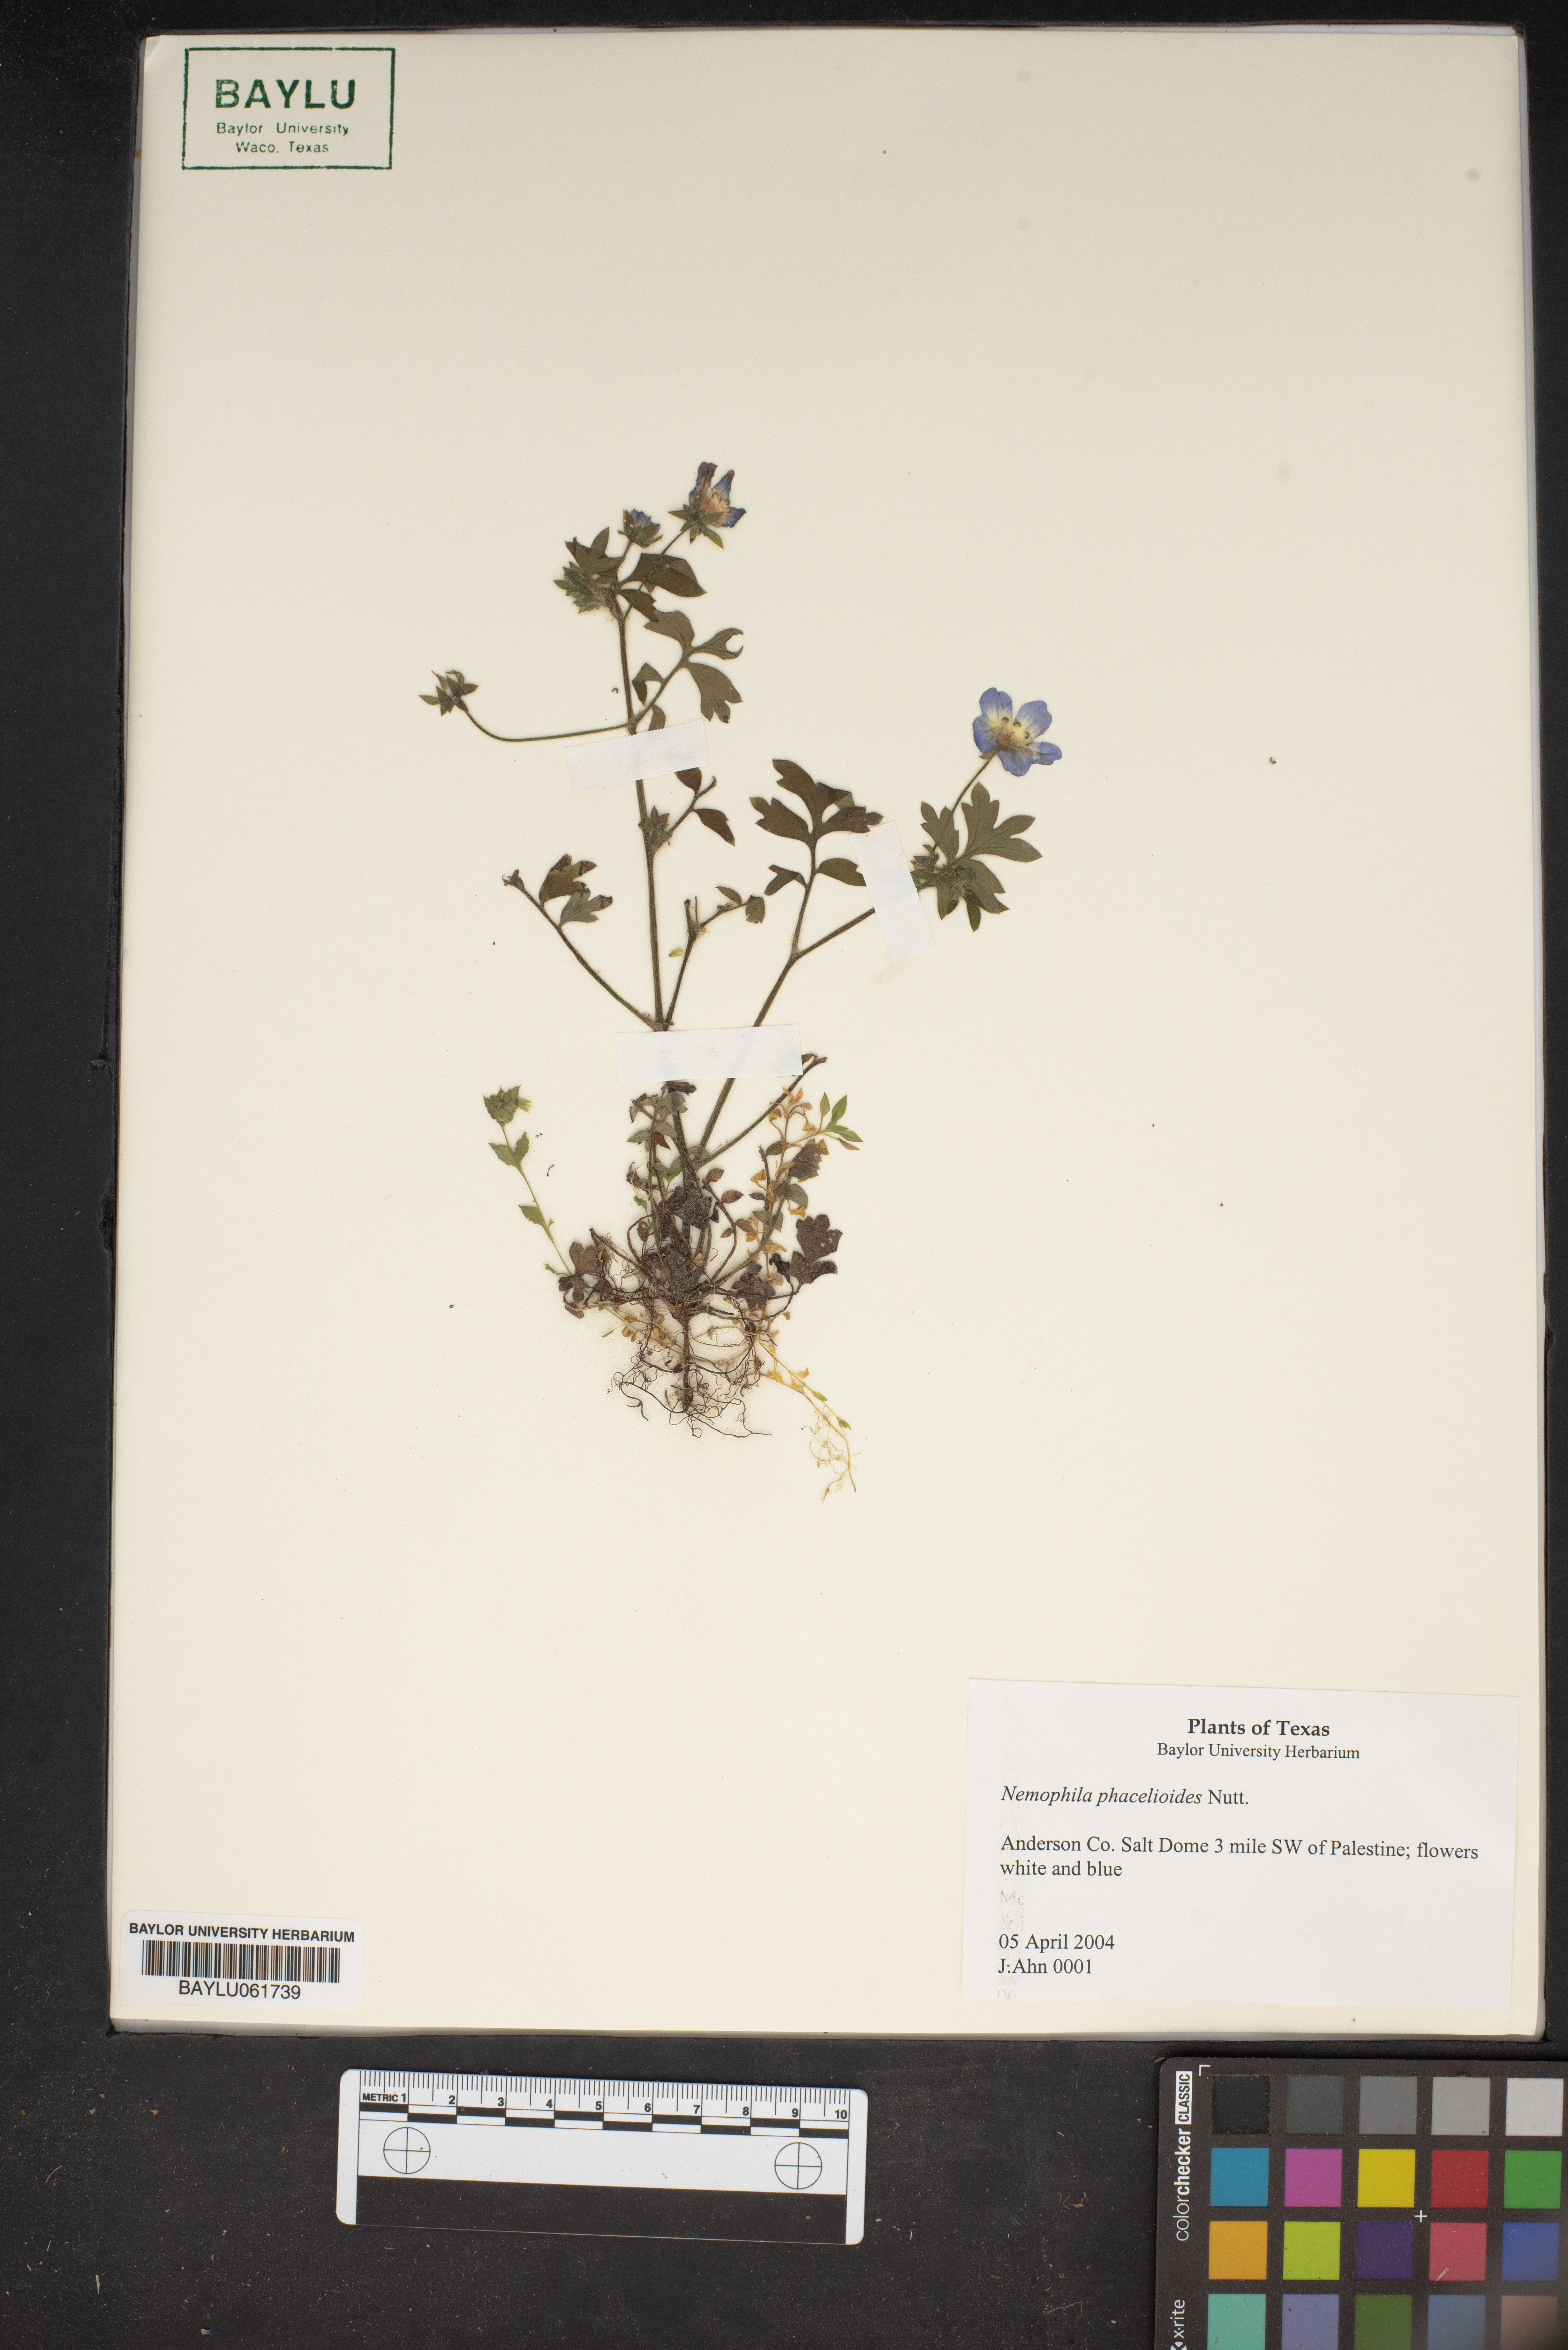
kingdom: Plantae
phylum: Tracheophyta
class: Magnoliopsida
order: Boraginales
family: Hydrophyllaceae
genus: Nemophila
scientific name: Nemophila phacelioides
